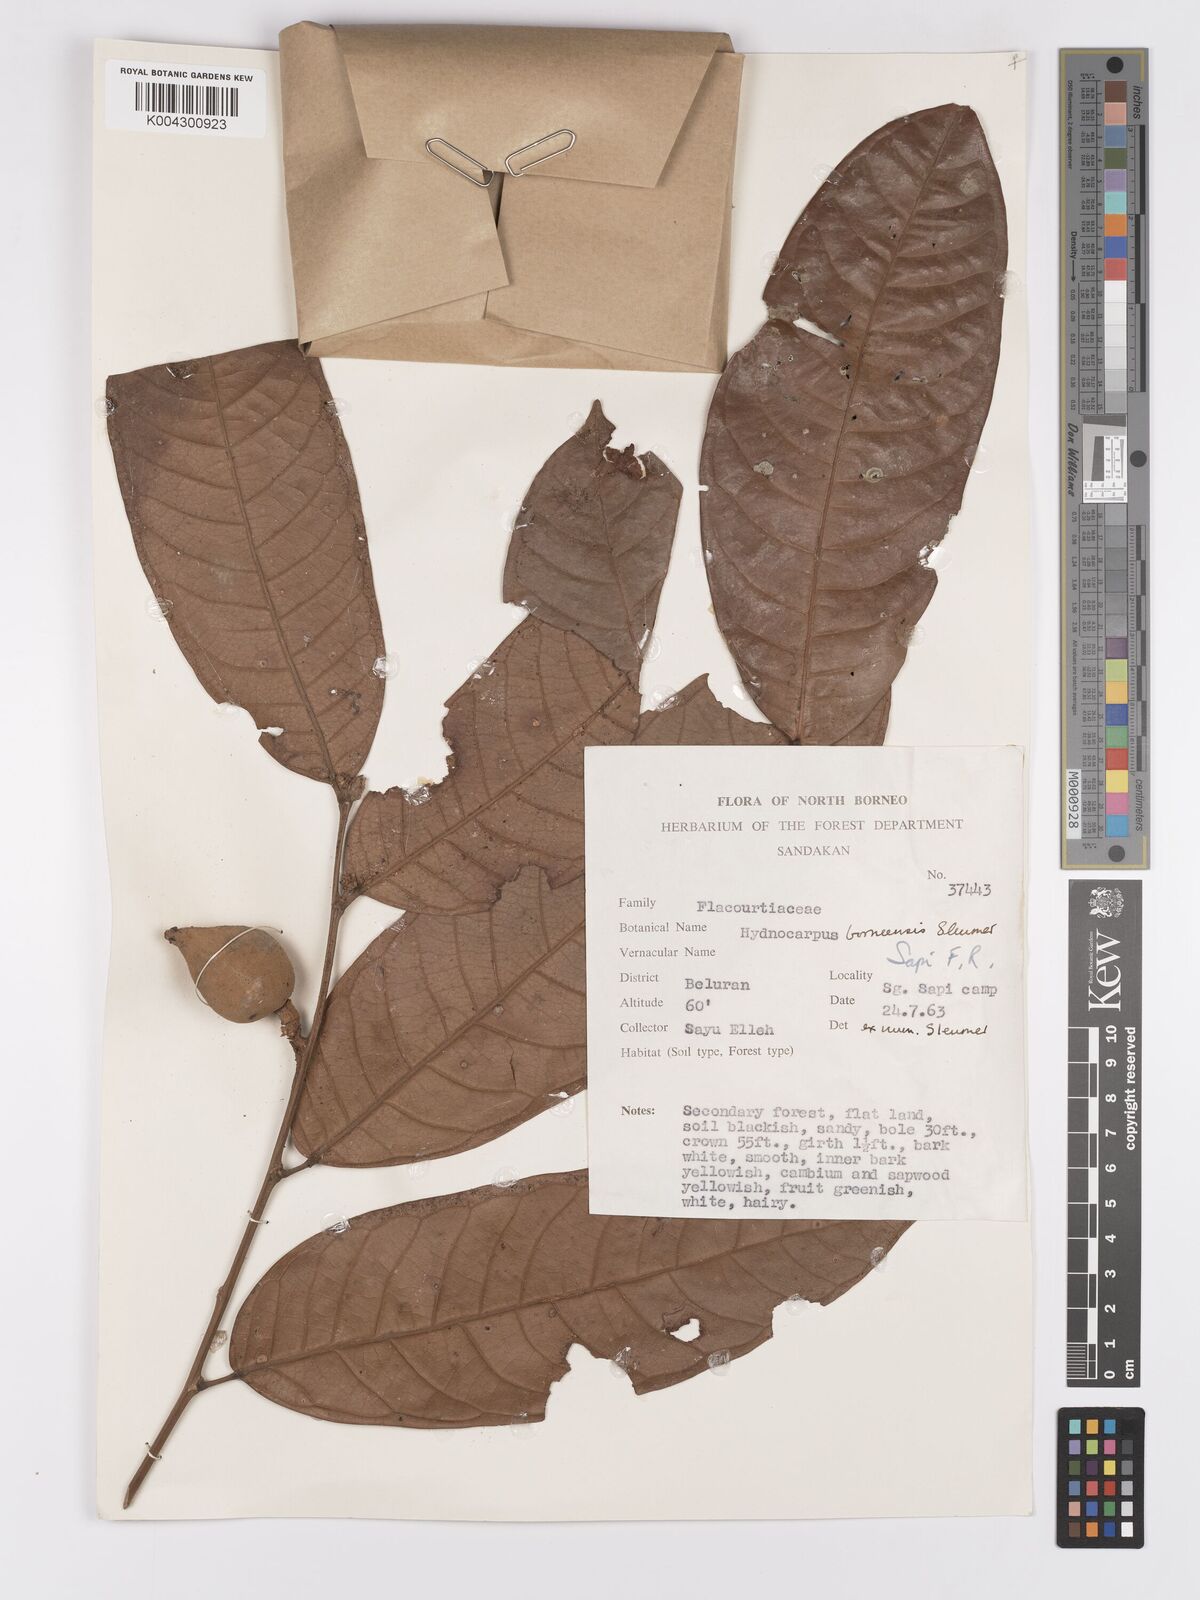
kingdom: Plantae
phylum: Tracheophyta
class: Magnoliopsida
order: Malpighiales
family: Achariaceae
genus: Hydnocarpus
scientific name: Hydnocarpus borneensis
